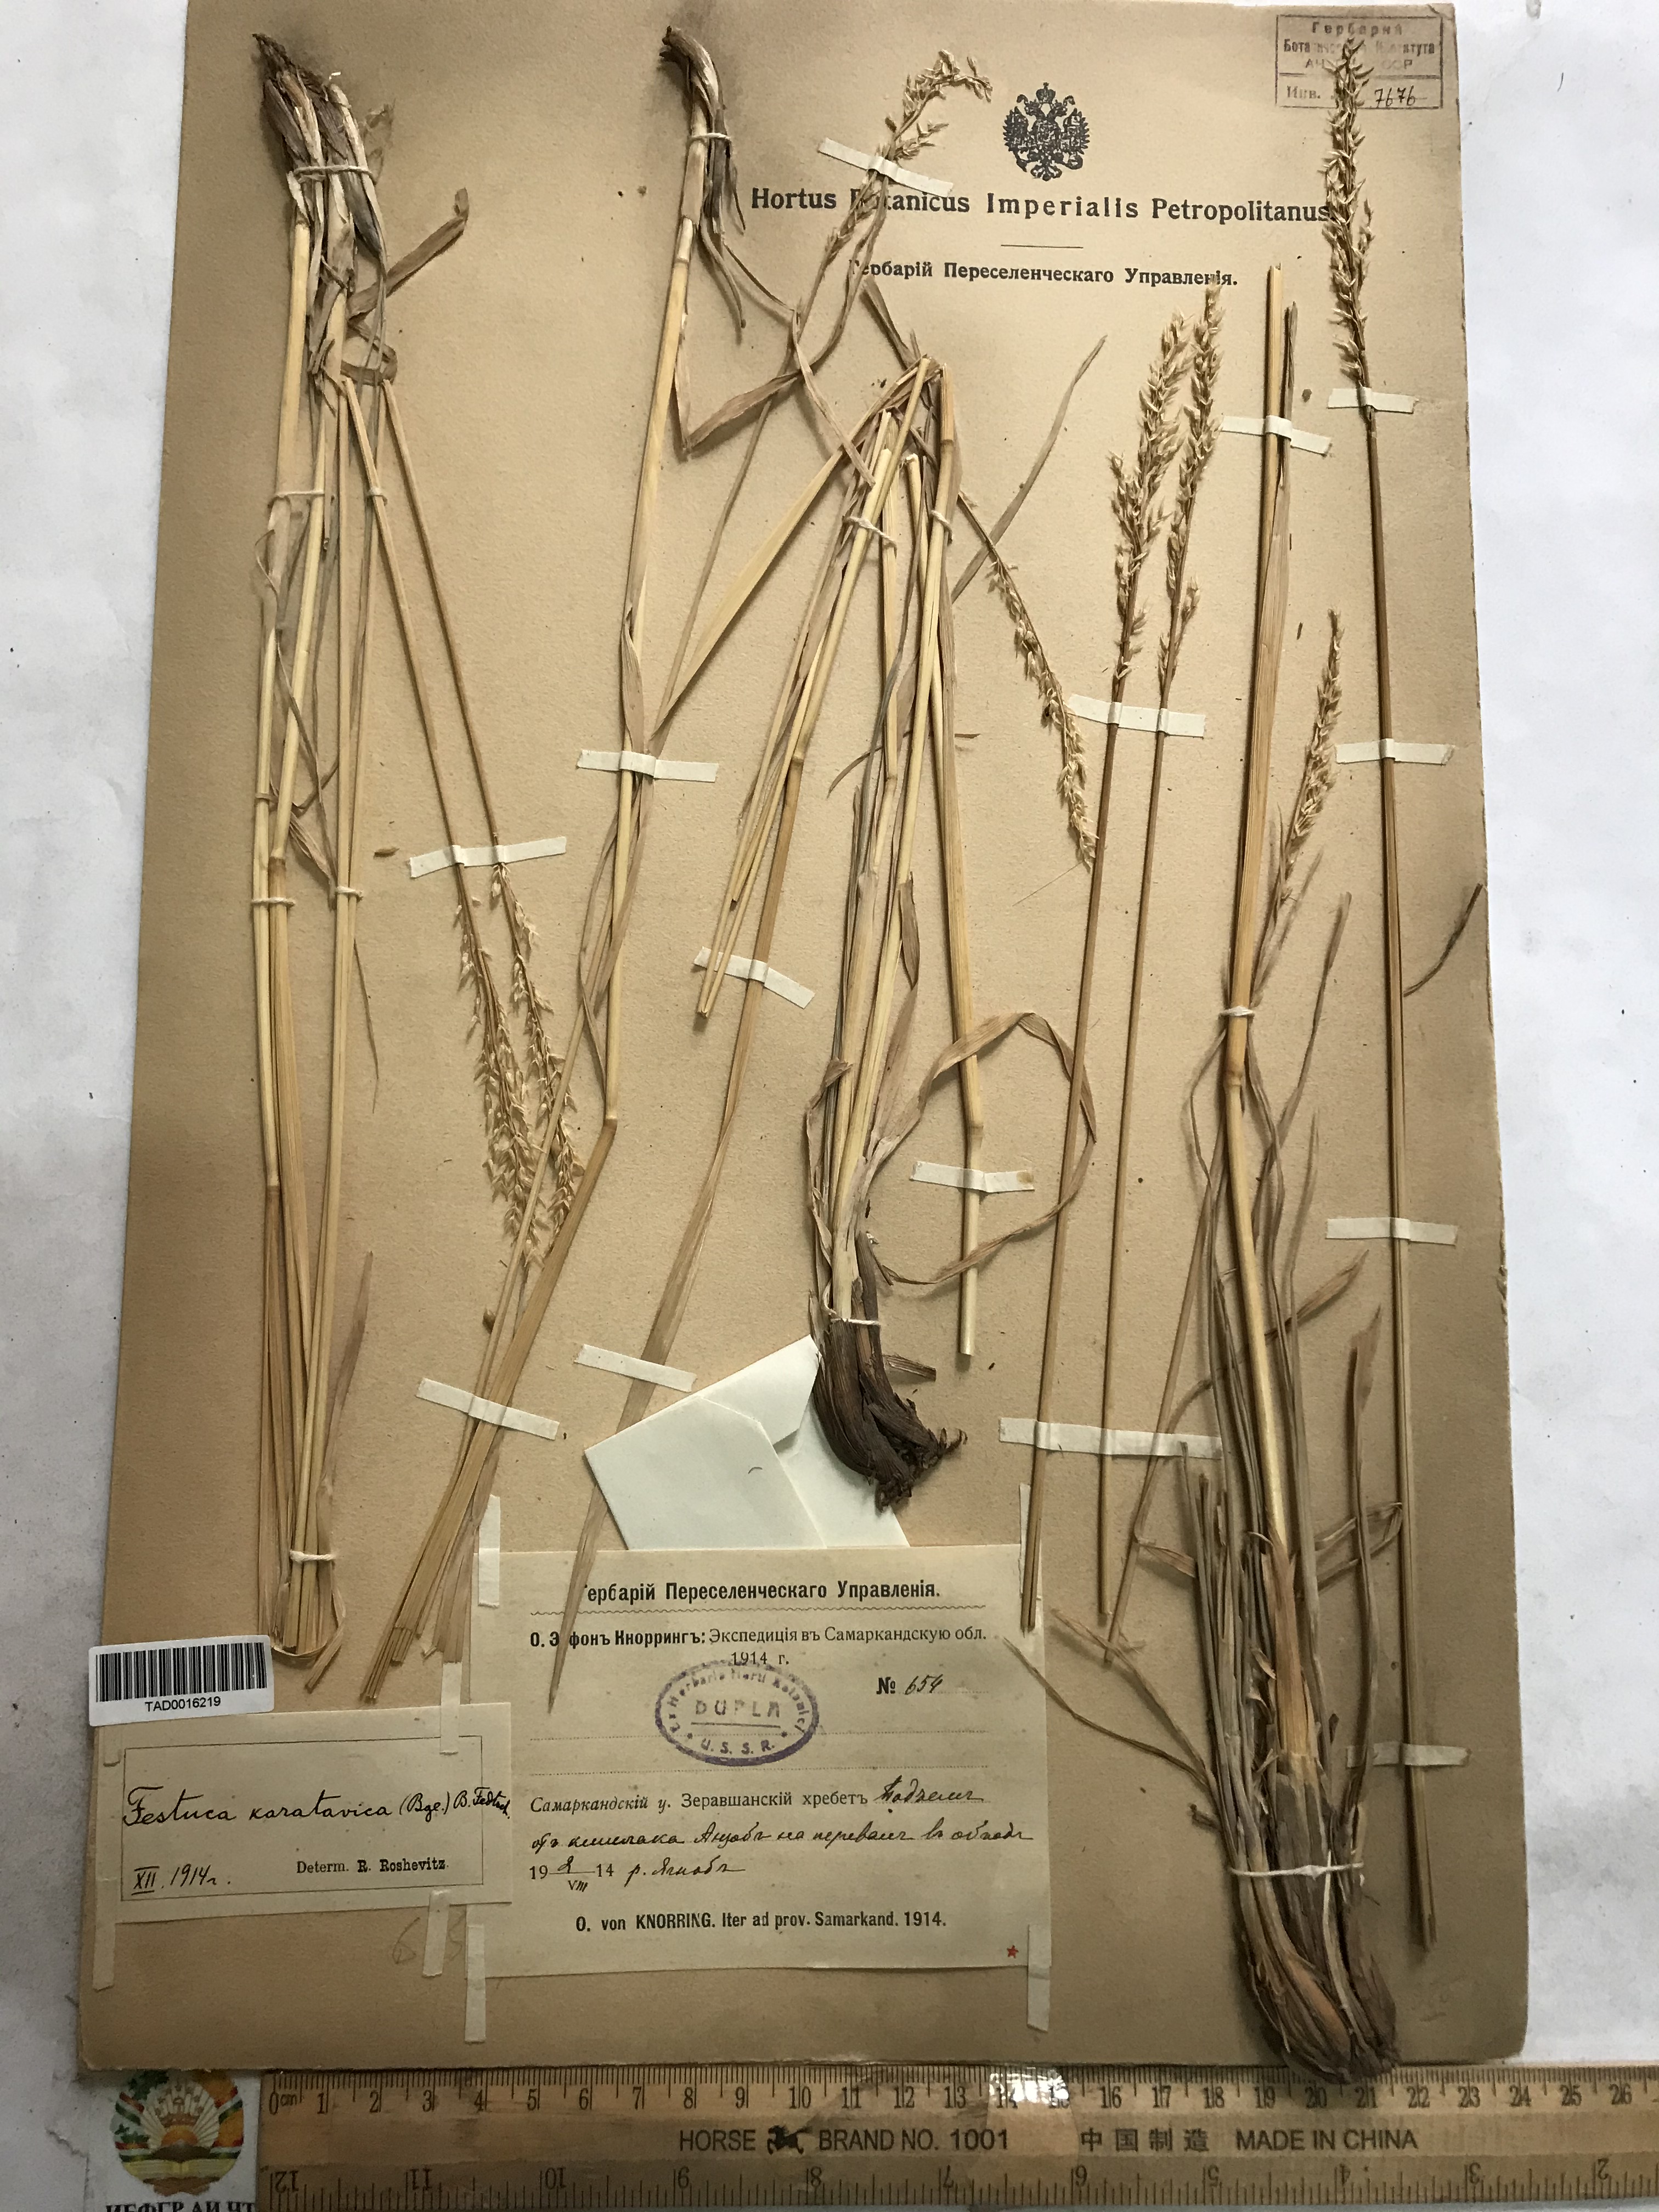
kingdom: Plantae
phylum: Tracheophyta
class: Liliopsida
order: Poales
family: Poaceae
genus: Festuca
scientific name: Festuca karatavica
